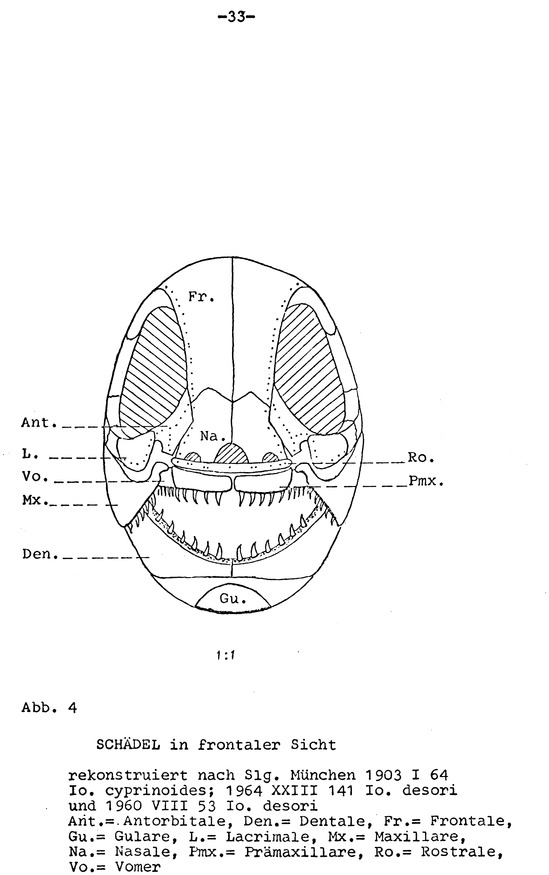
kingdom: Animalia
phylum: Chordata
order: Amiiformes
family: Ionoscopidae
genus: Ionoscopus
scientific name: Ionoscopus desori
